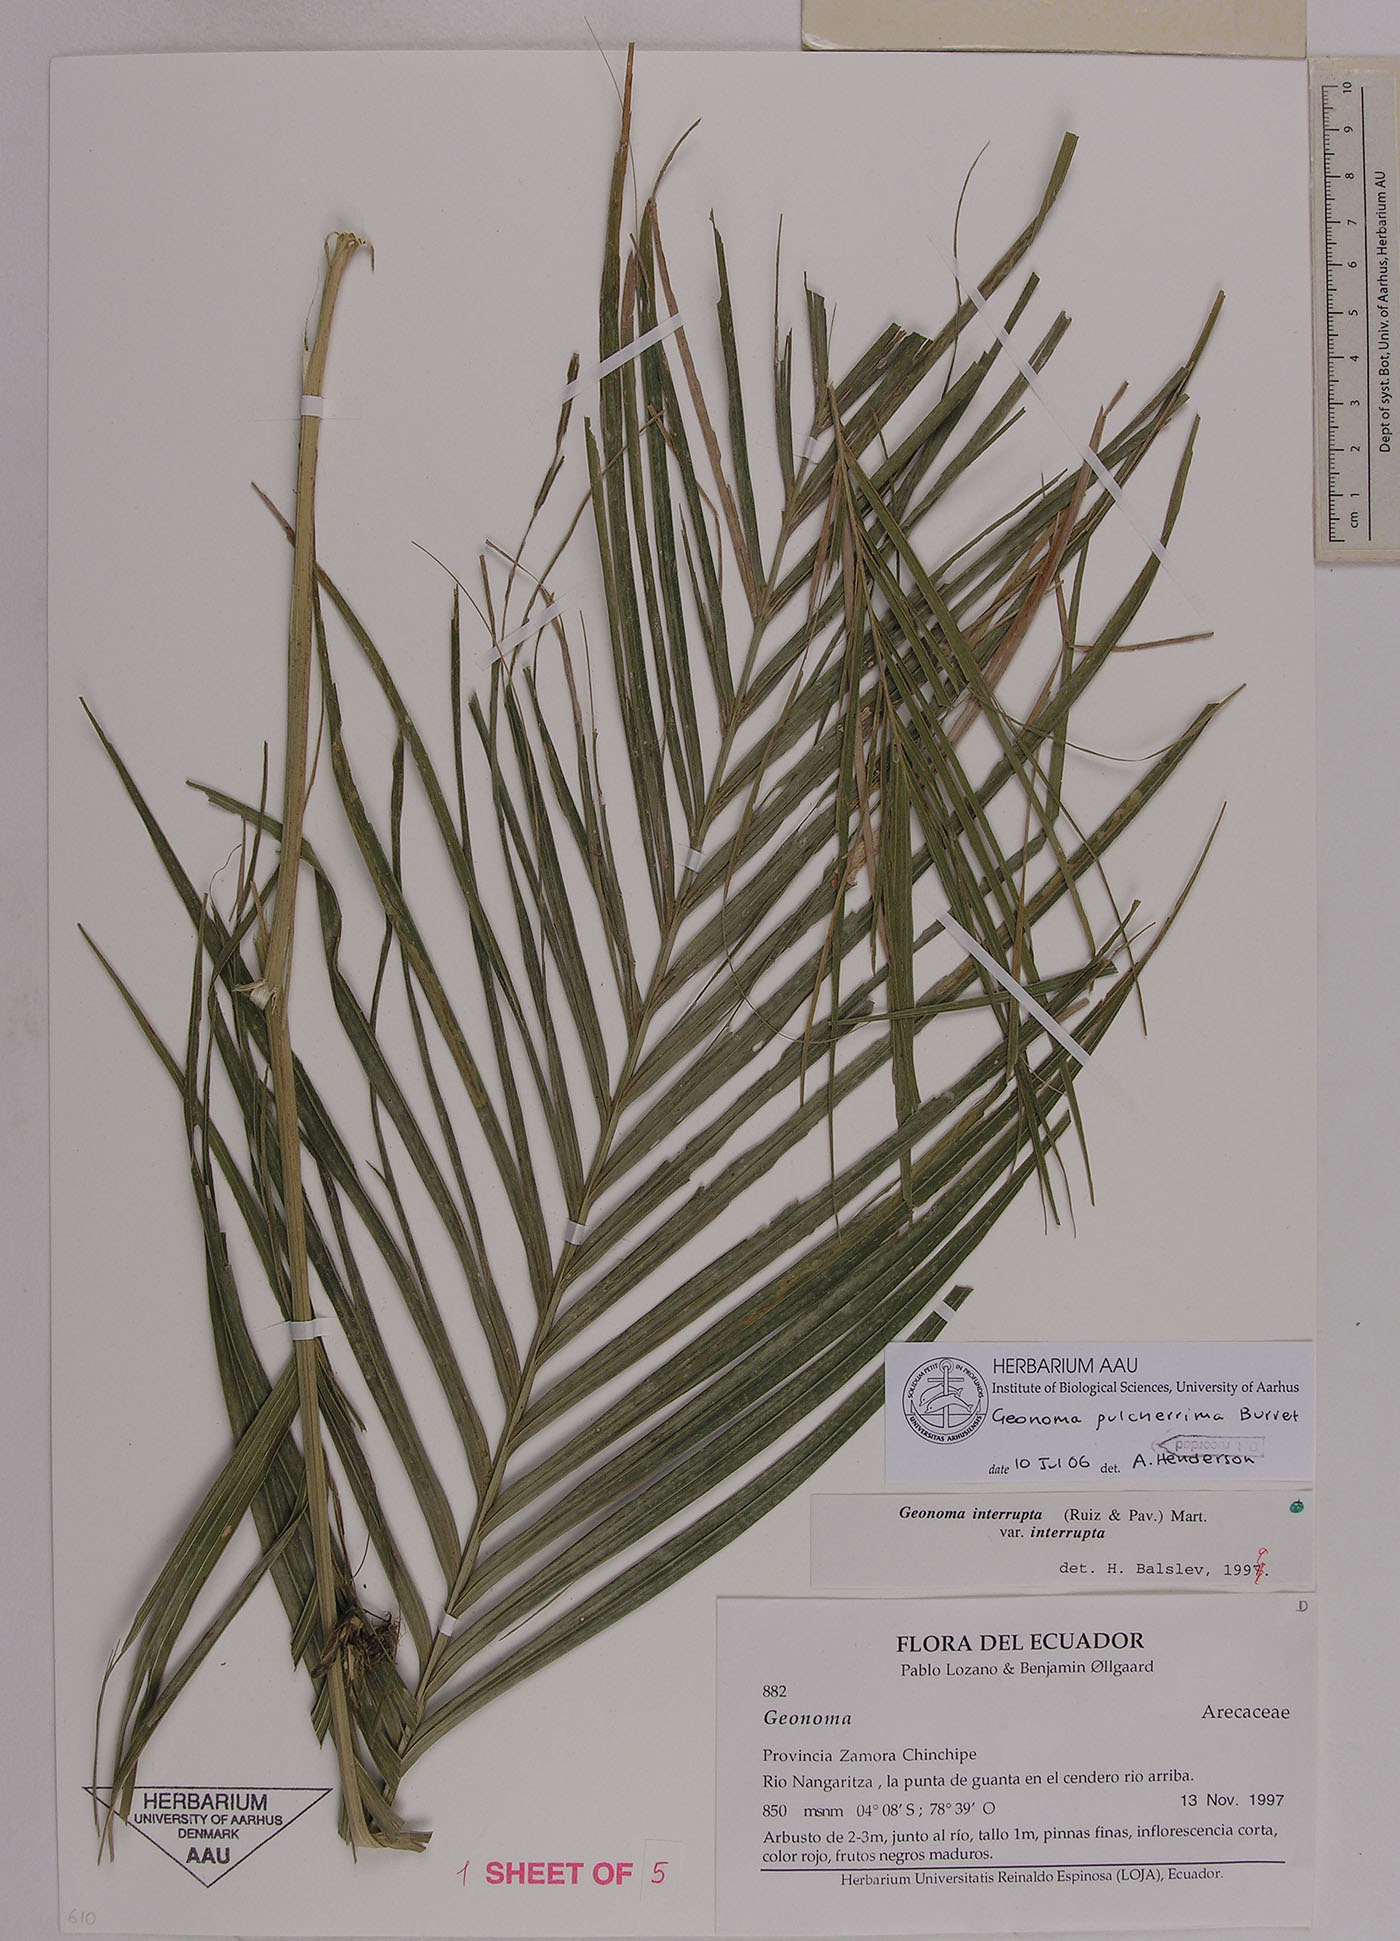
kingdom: Plantae
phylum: Tracheophyta
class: Liliopsida
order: Arecales
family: Arecaceae
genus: Geonoma
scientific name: Geonoma undata
